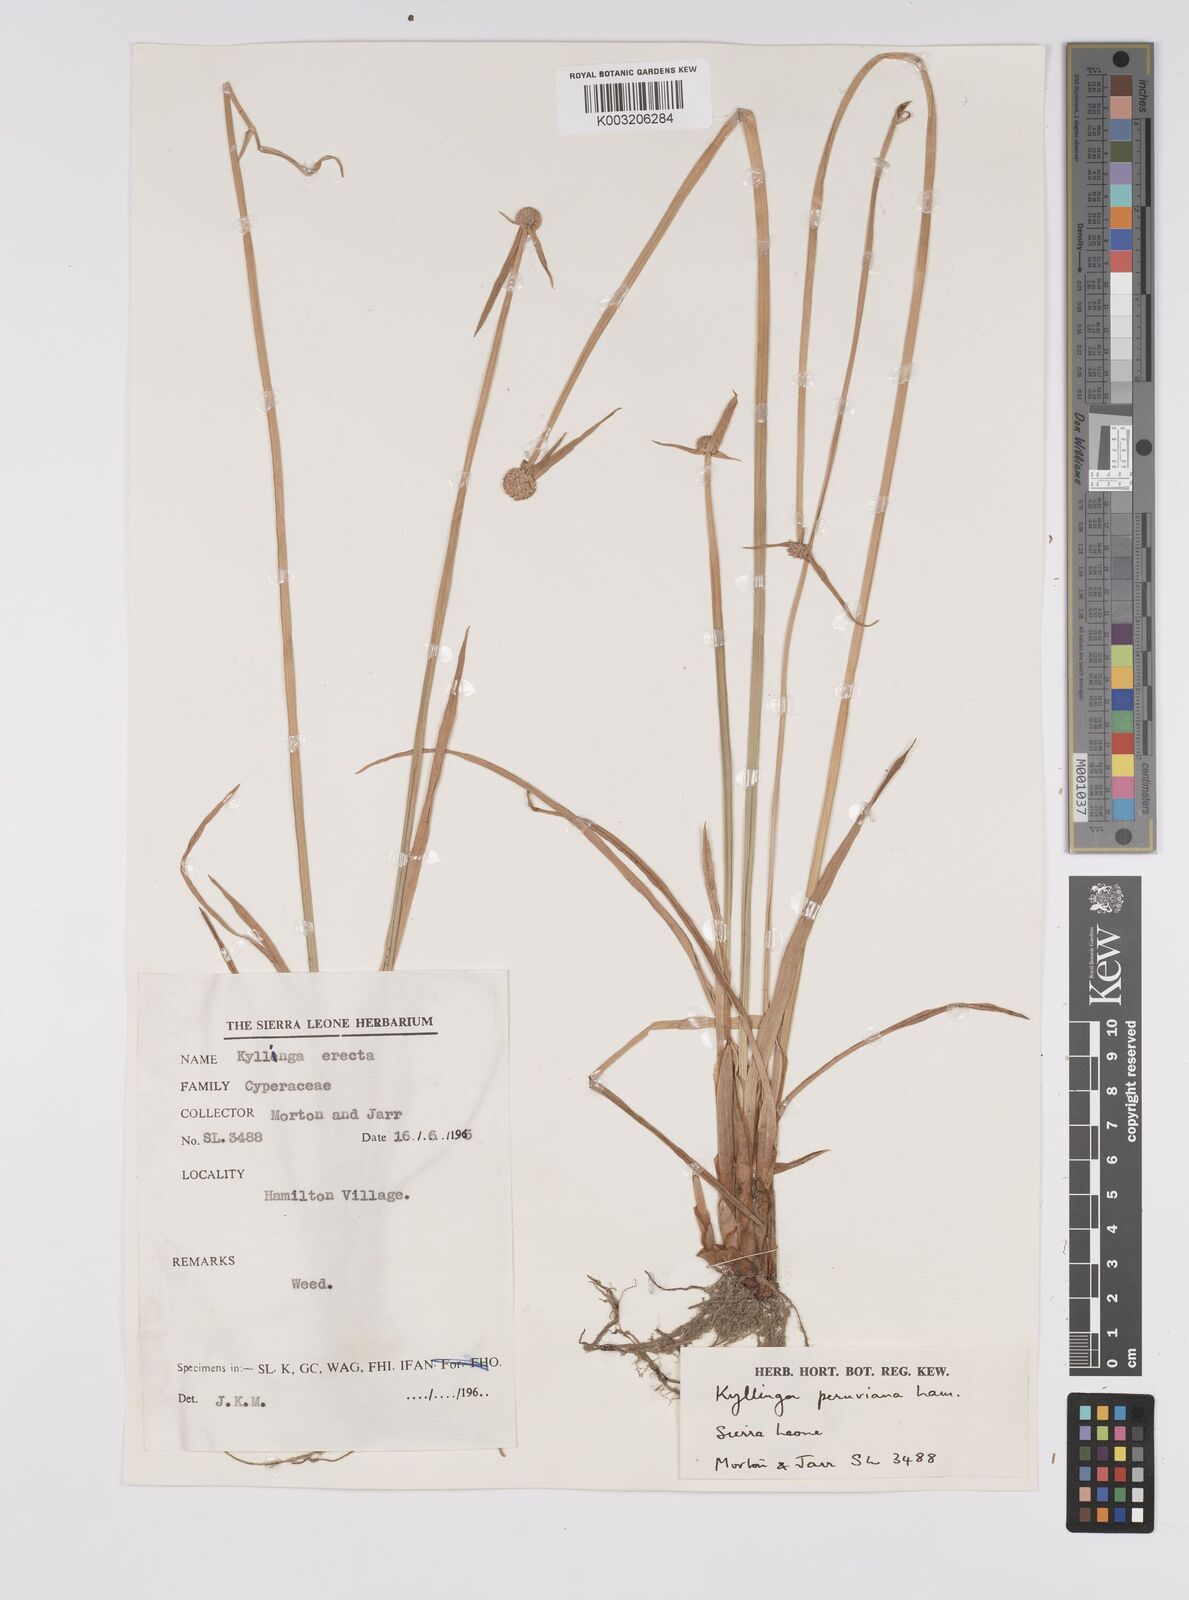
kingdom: Plantae
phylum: Tracheophyta
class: Liliopsida
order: Poales
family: Cyperaceae
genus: Cyperus
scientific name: Cyperus obtusatus
